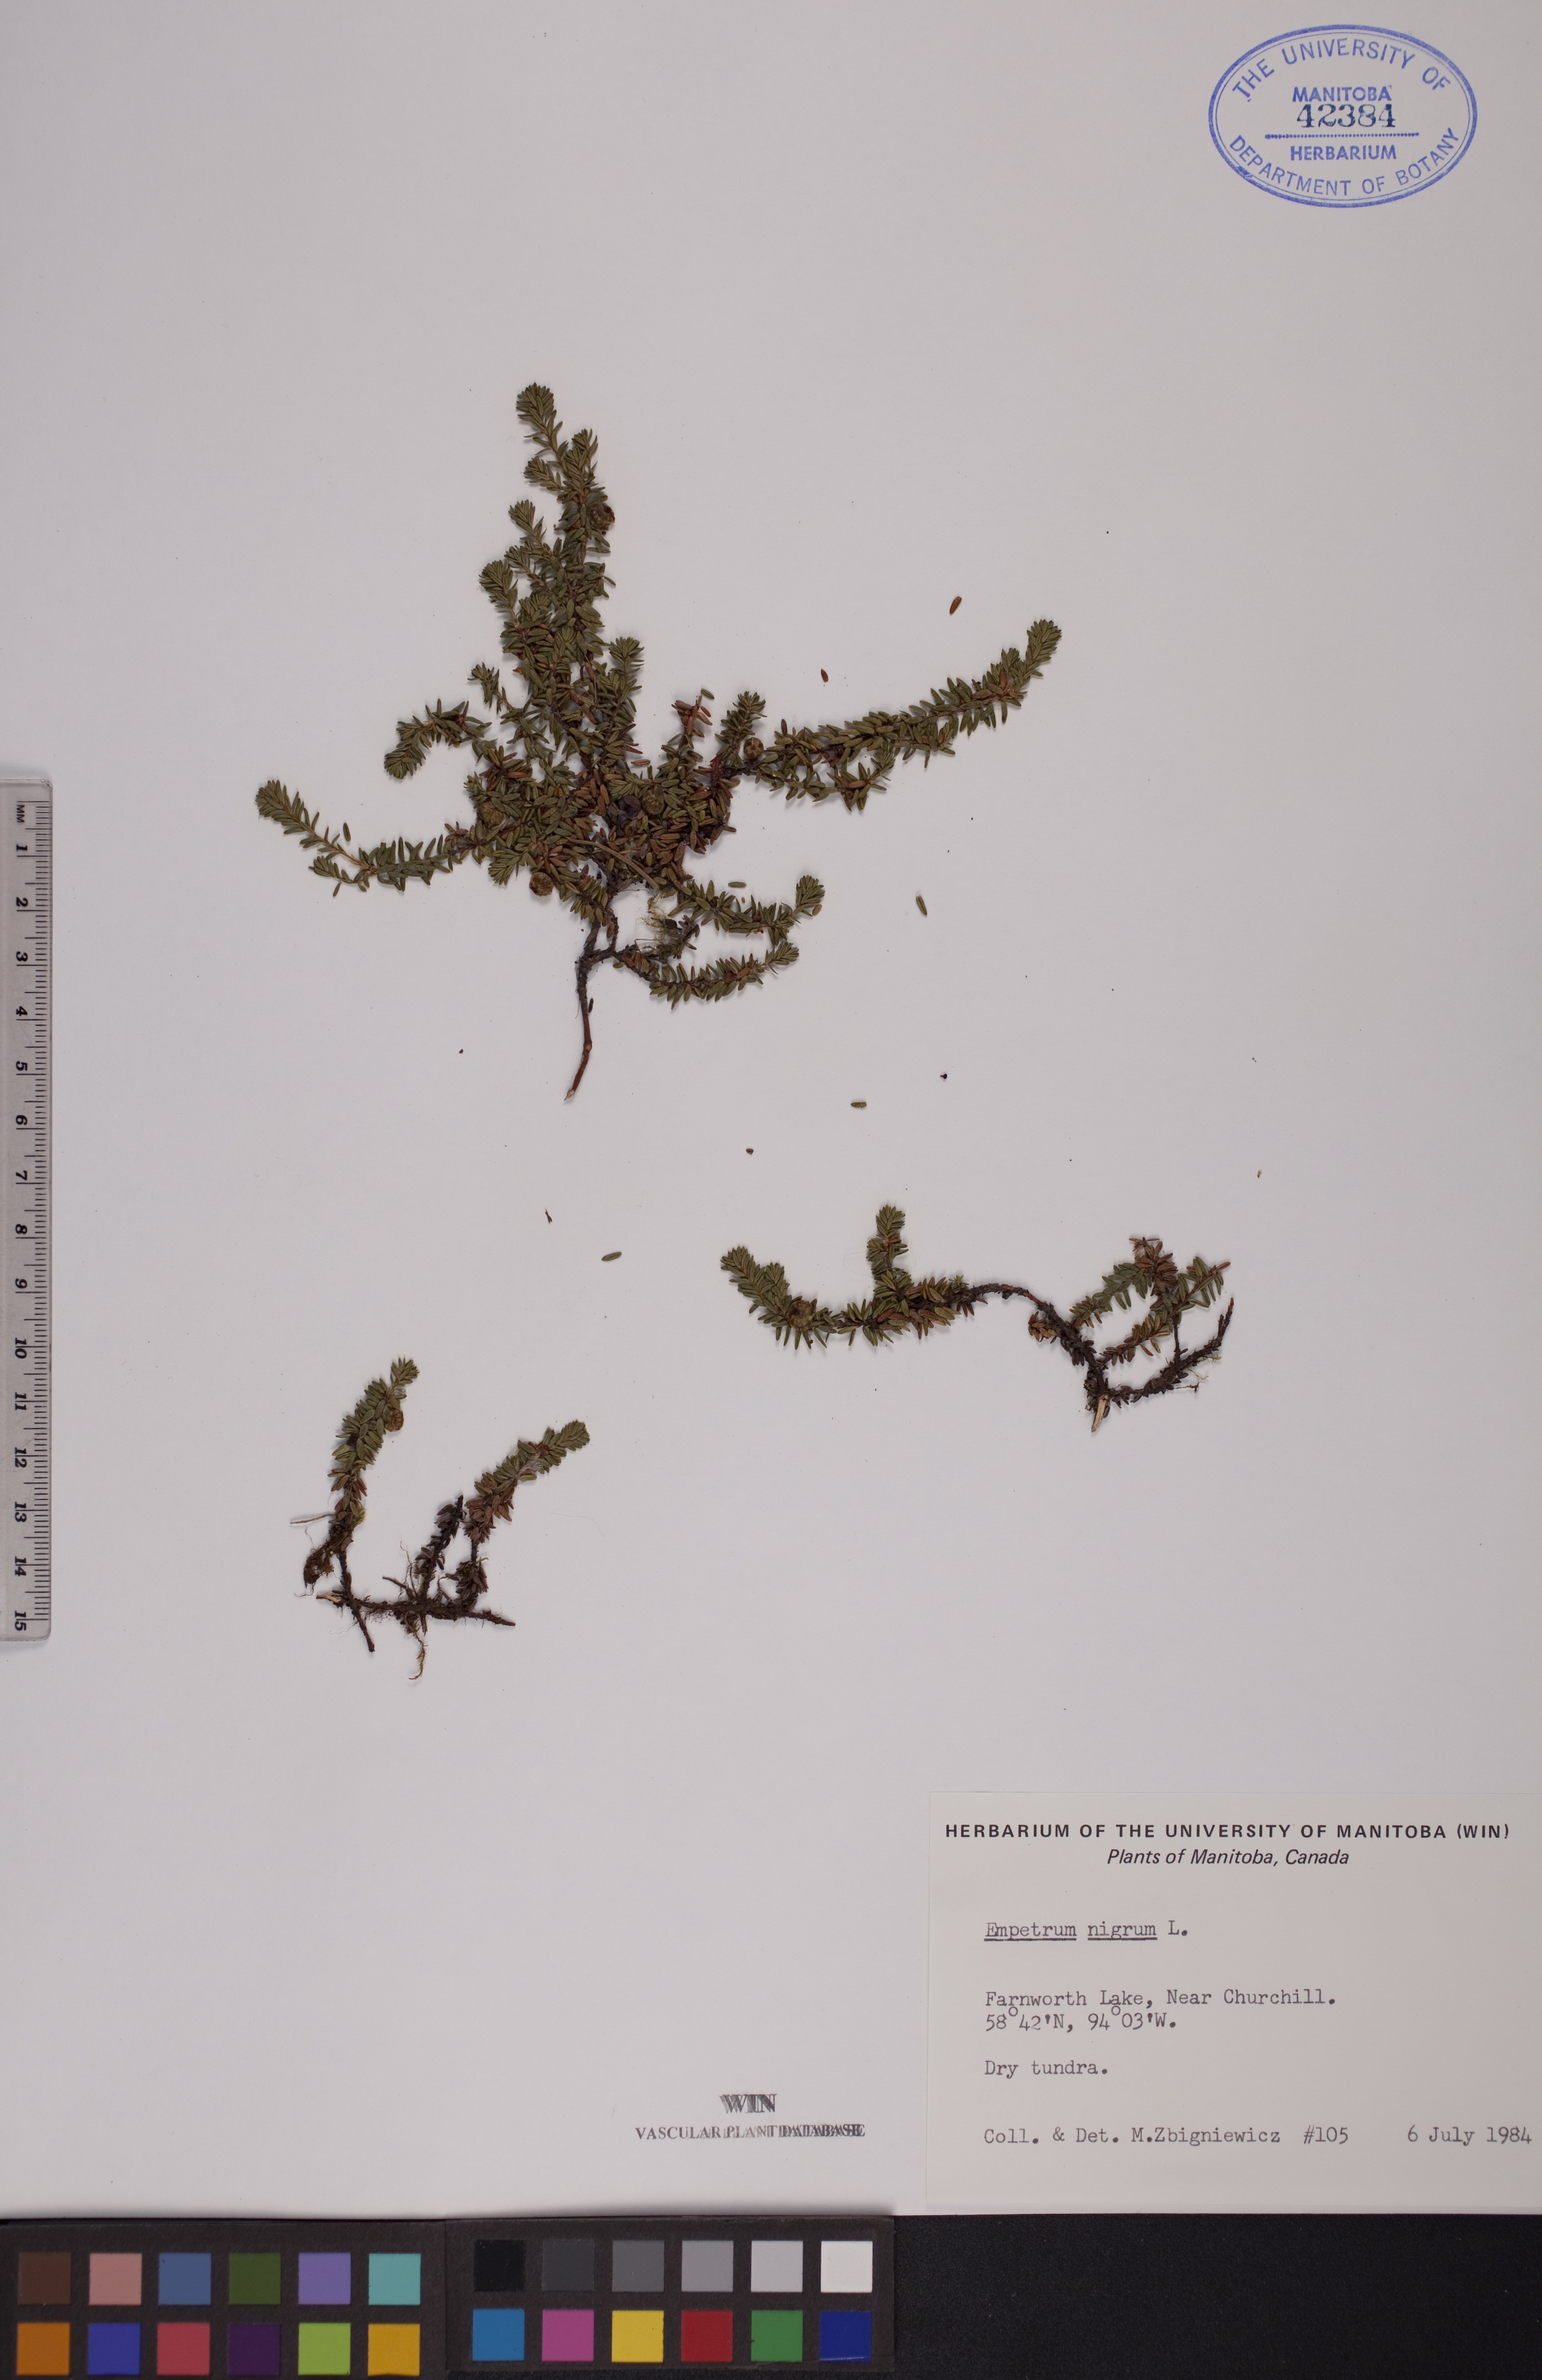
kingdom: Plantae
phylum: Tracheophyta
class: Magnoliopsida
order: Ericales
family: Ericaceae
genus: Empetrum
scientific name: Empetrum nigrum
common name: Black crowberry
